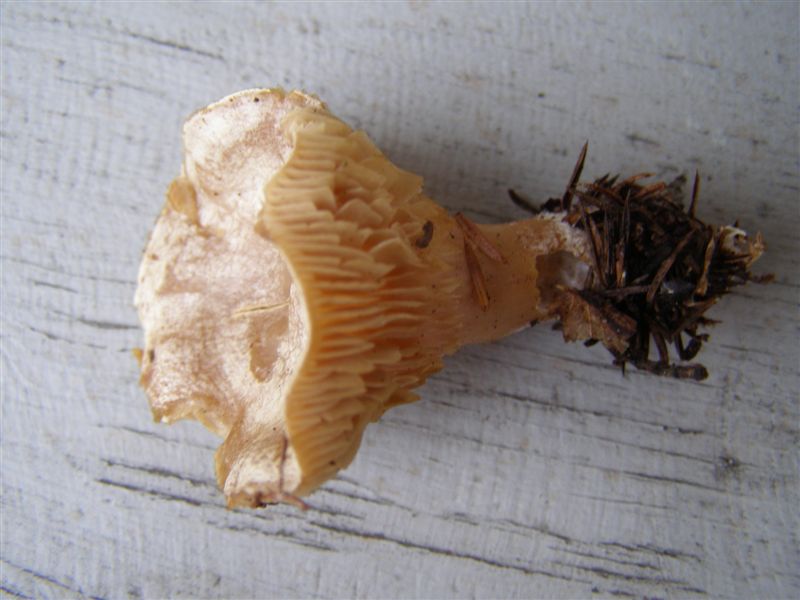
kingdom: Fungi
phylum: Basidiomycota
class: Agaricomycetes
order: Agaricales
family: Tricholomataceae
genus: Clitocybe
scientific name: Clitocybe phyllophila
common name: løv-tragthat
